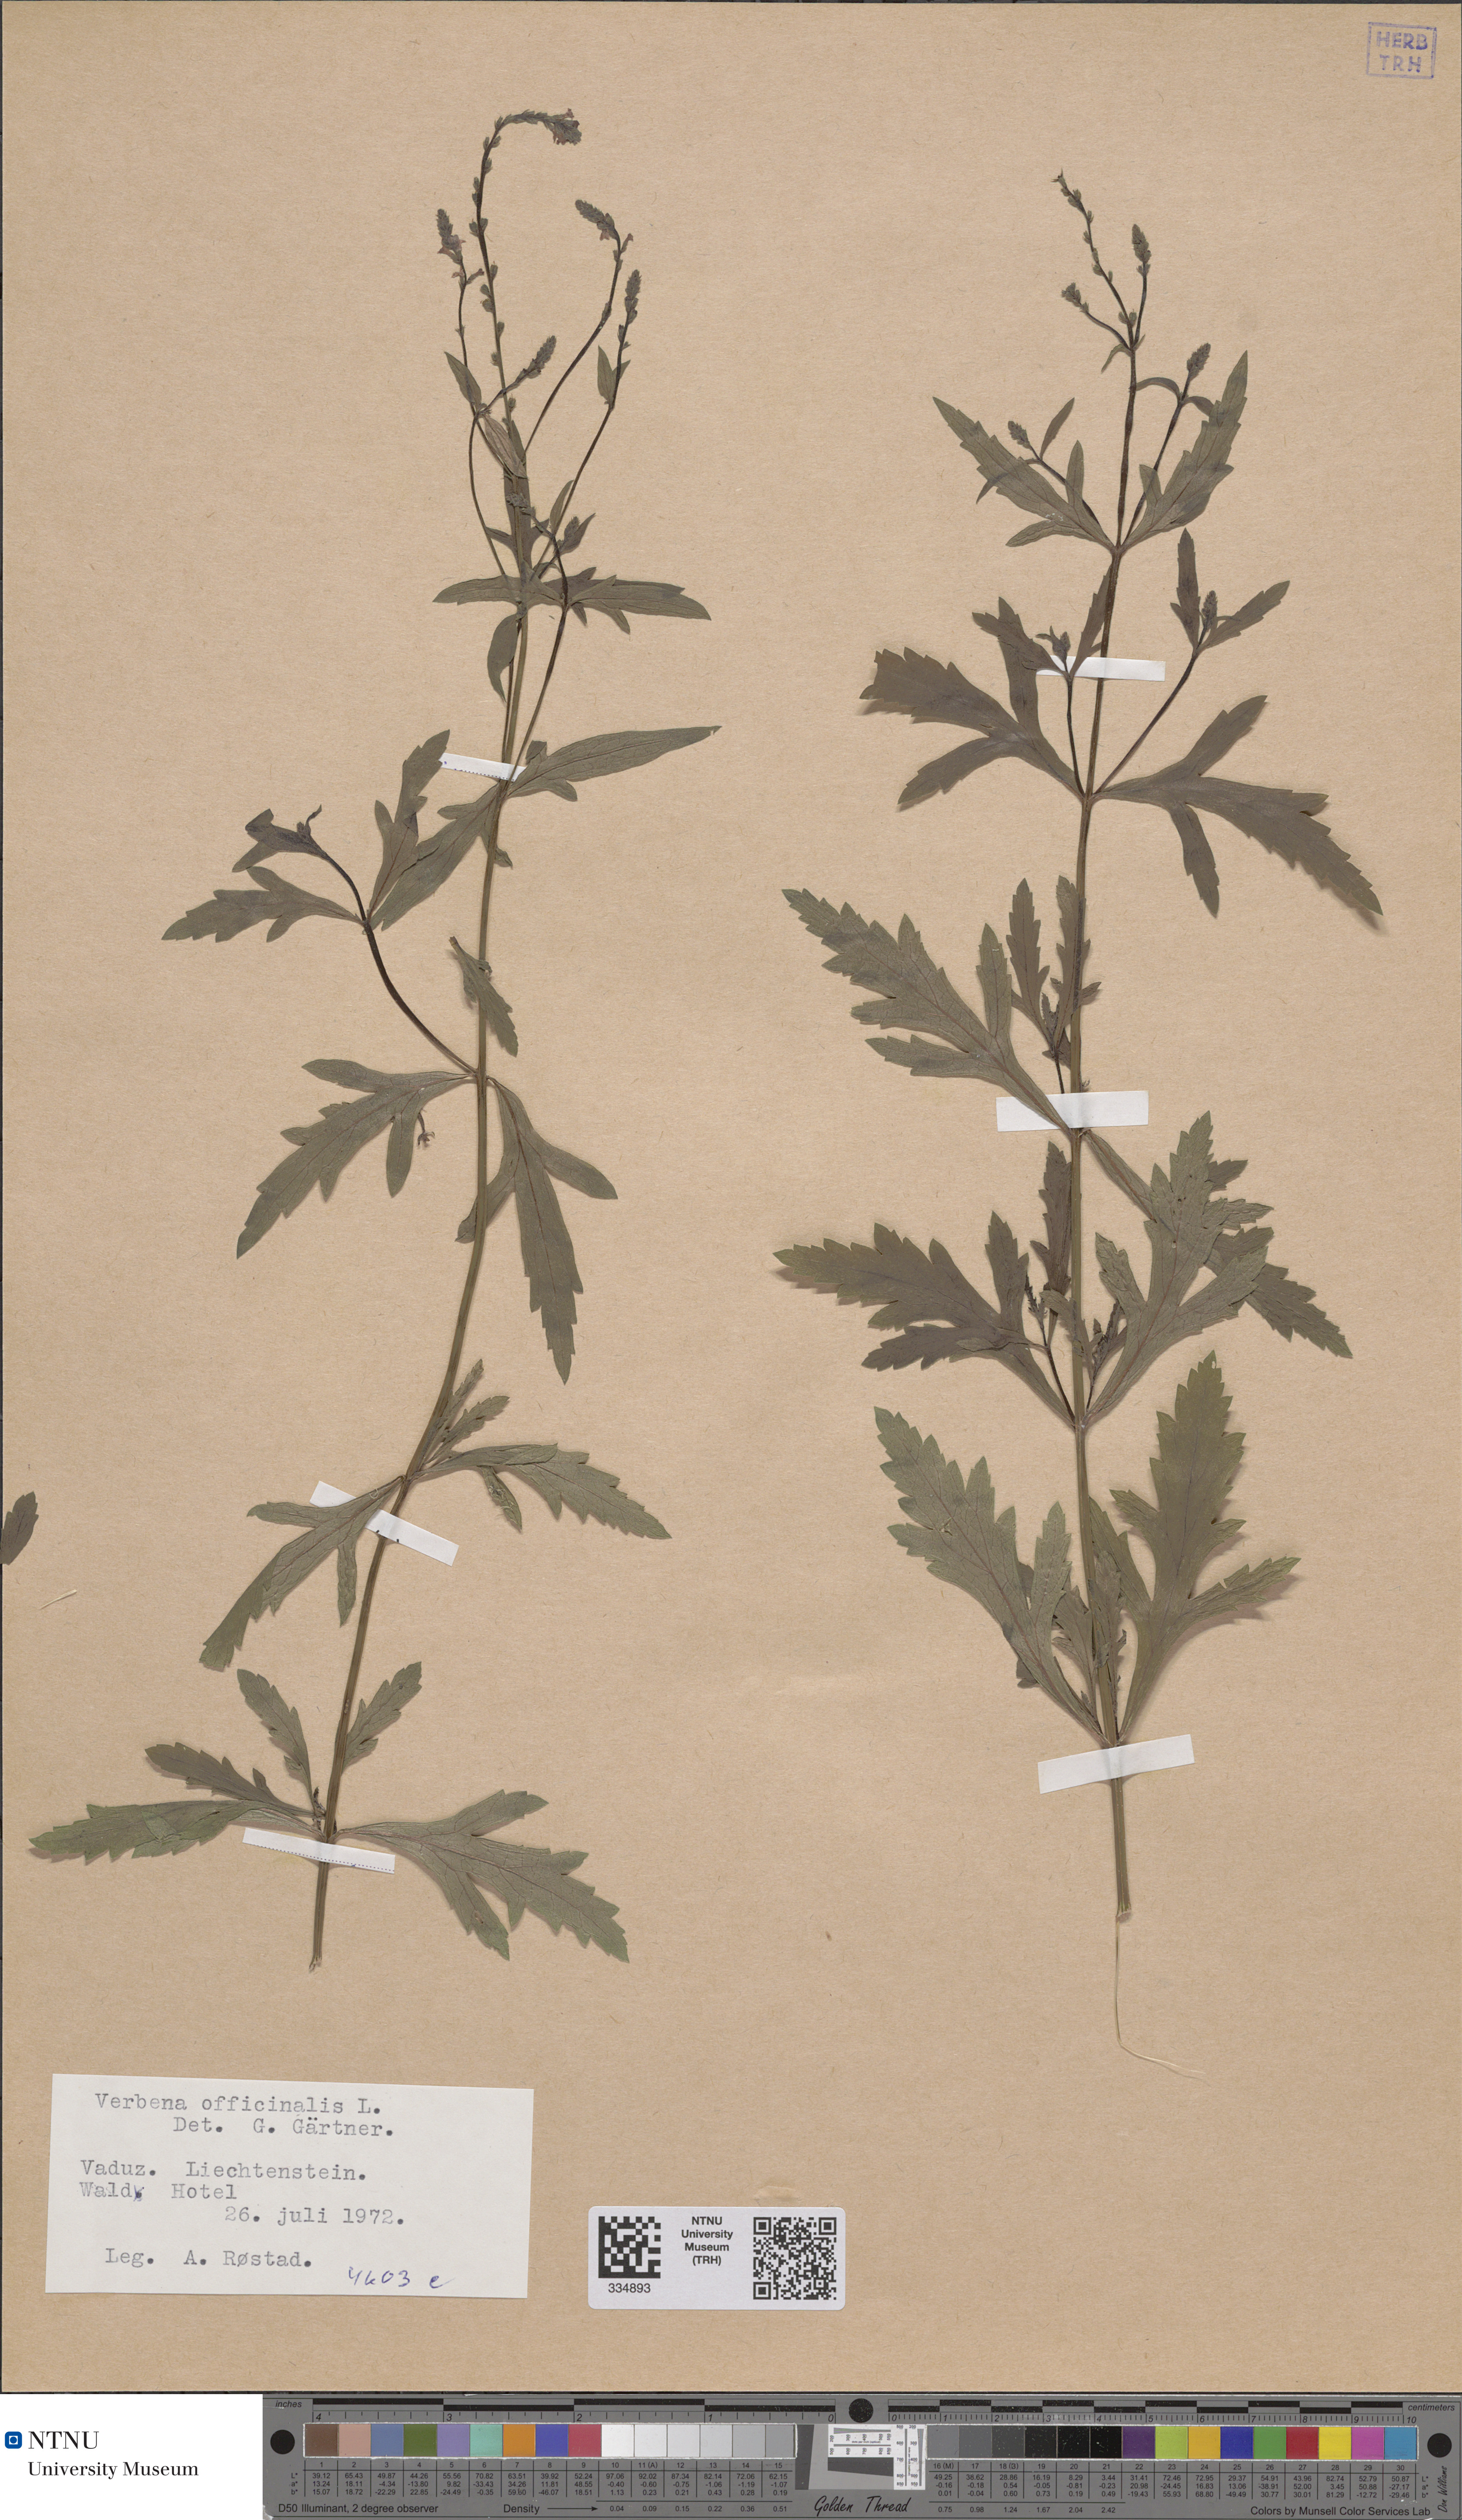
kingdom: Plantae
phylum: Tracheophyta
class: Magnoliopsida
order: Lamiales
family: Verbenaceae
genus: Verbena
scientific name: Verbena officinalis
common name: Vervain
